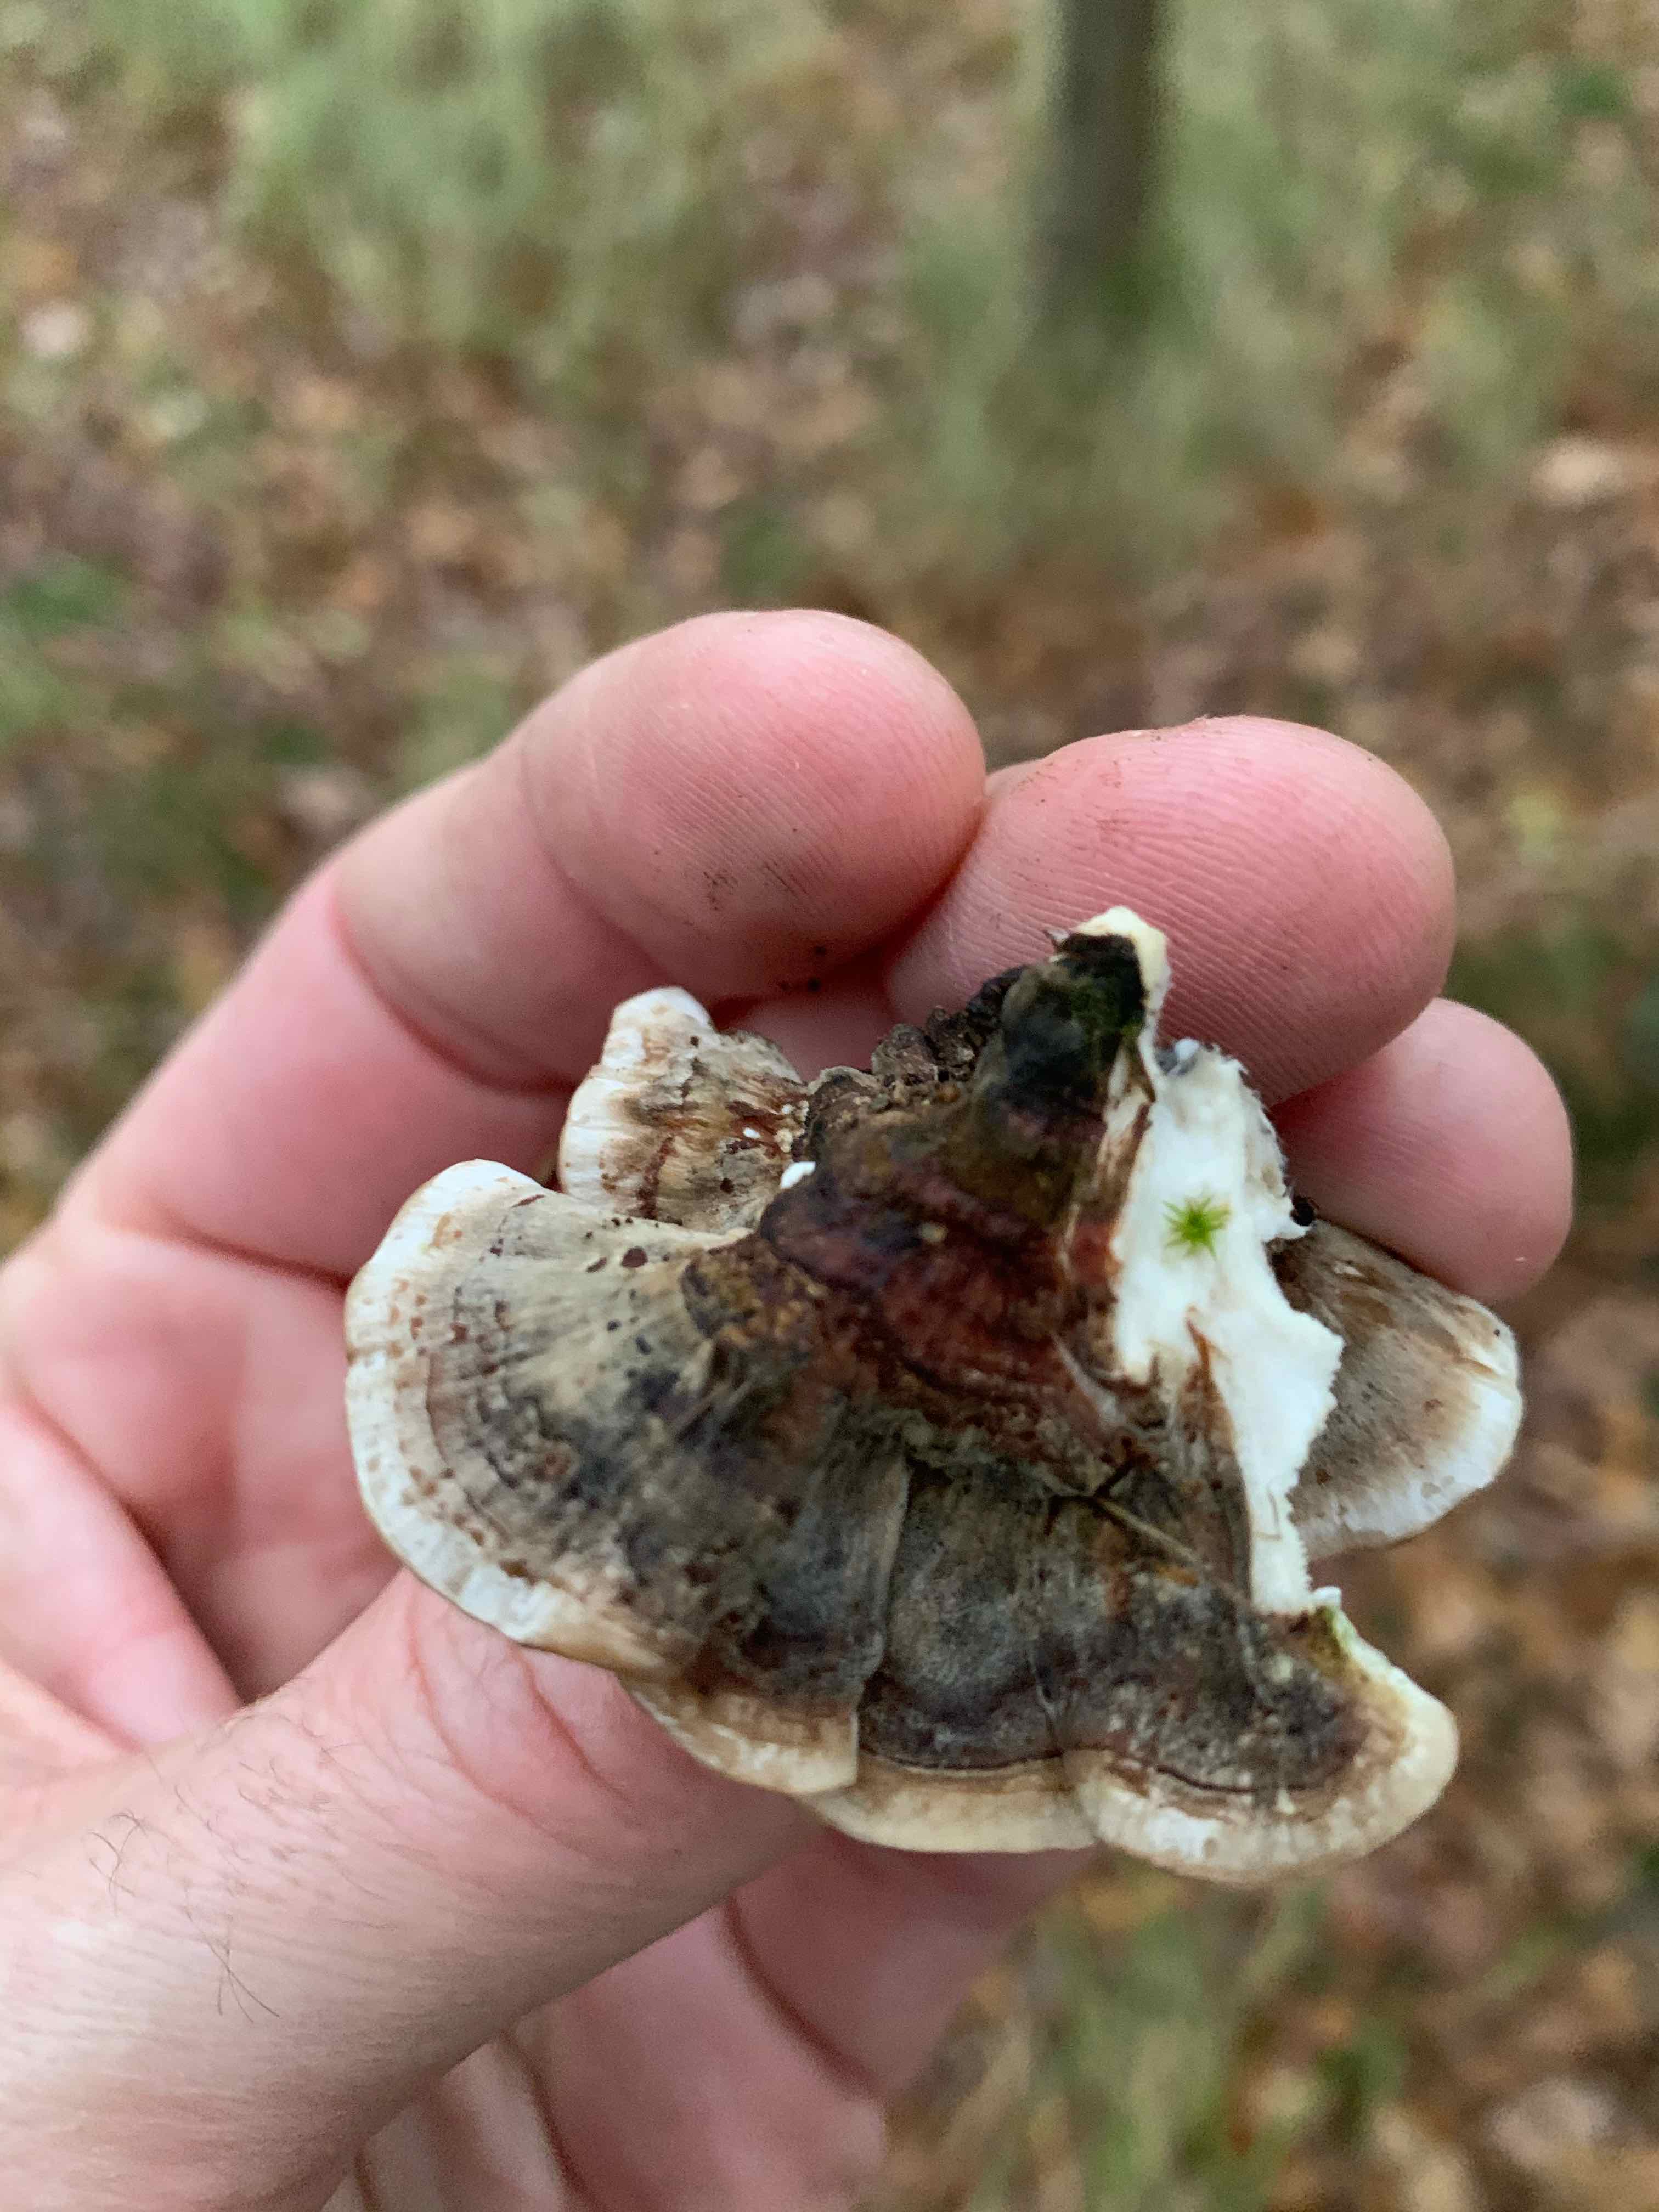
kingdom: Fungi
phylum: Basidiomycota
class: Agaricomycetes
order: Polyporales
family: Polyporaceae
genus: Trametes
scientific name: Trametes versicolor
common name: broget læderporesvamp
